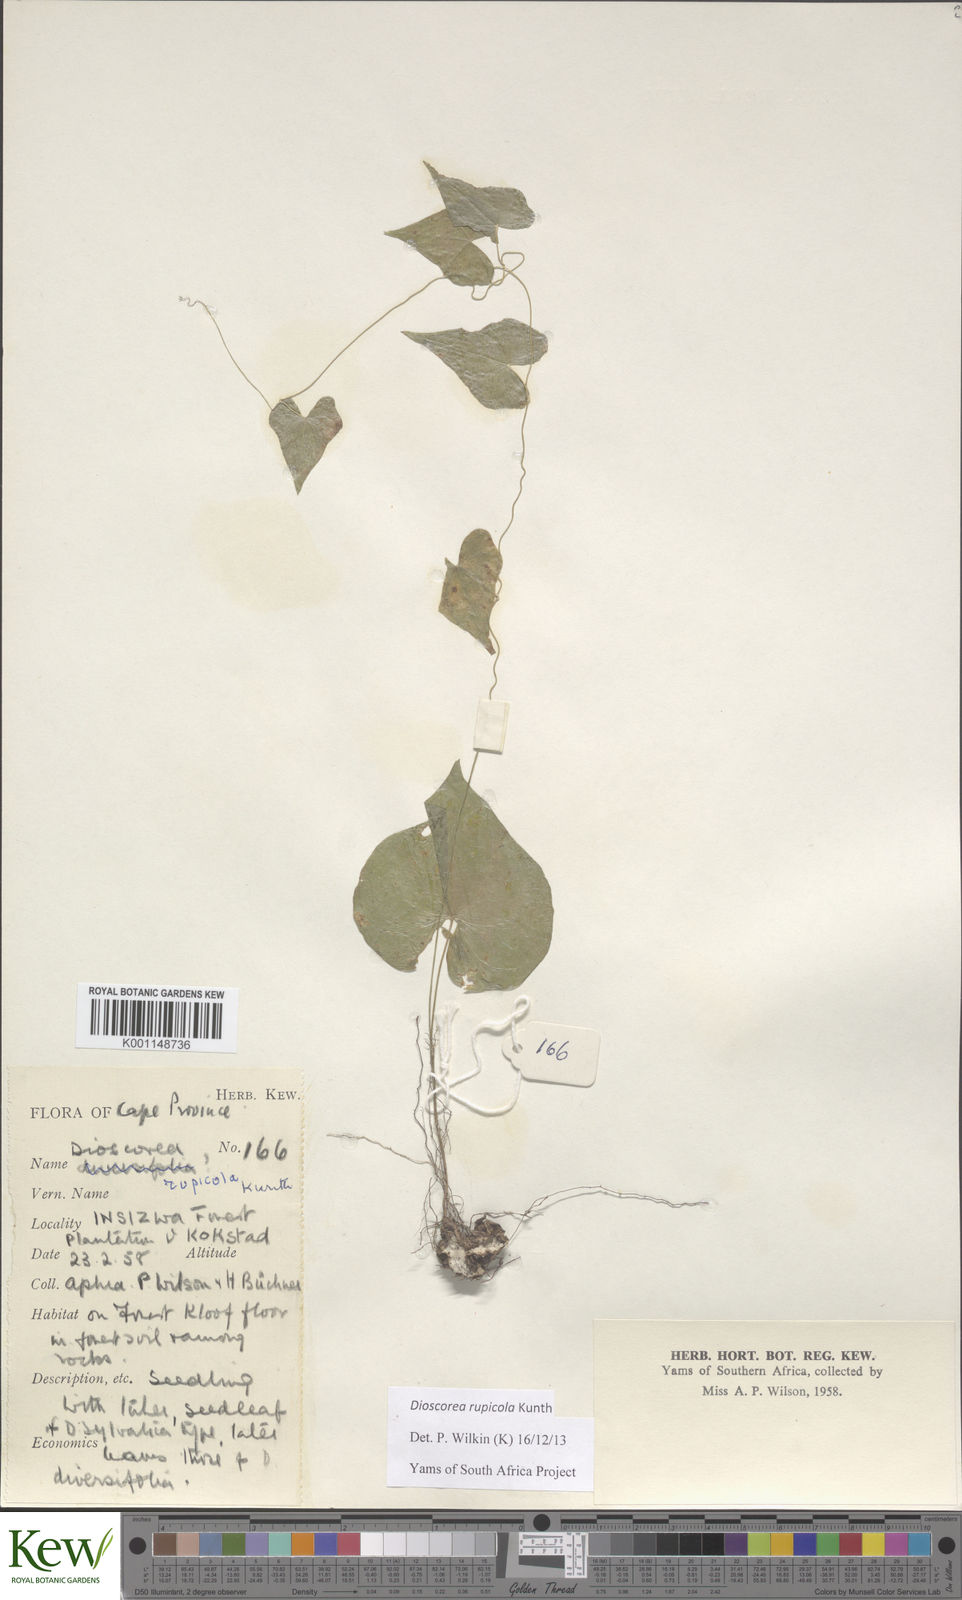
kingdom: Plantae
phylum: Tracheophyta
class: Liliopsida
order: Dioscoreales
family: Dioscoreaceae
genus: Dioscorea
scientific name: Dioscorea rupicola
